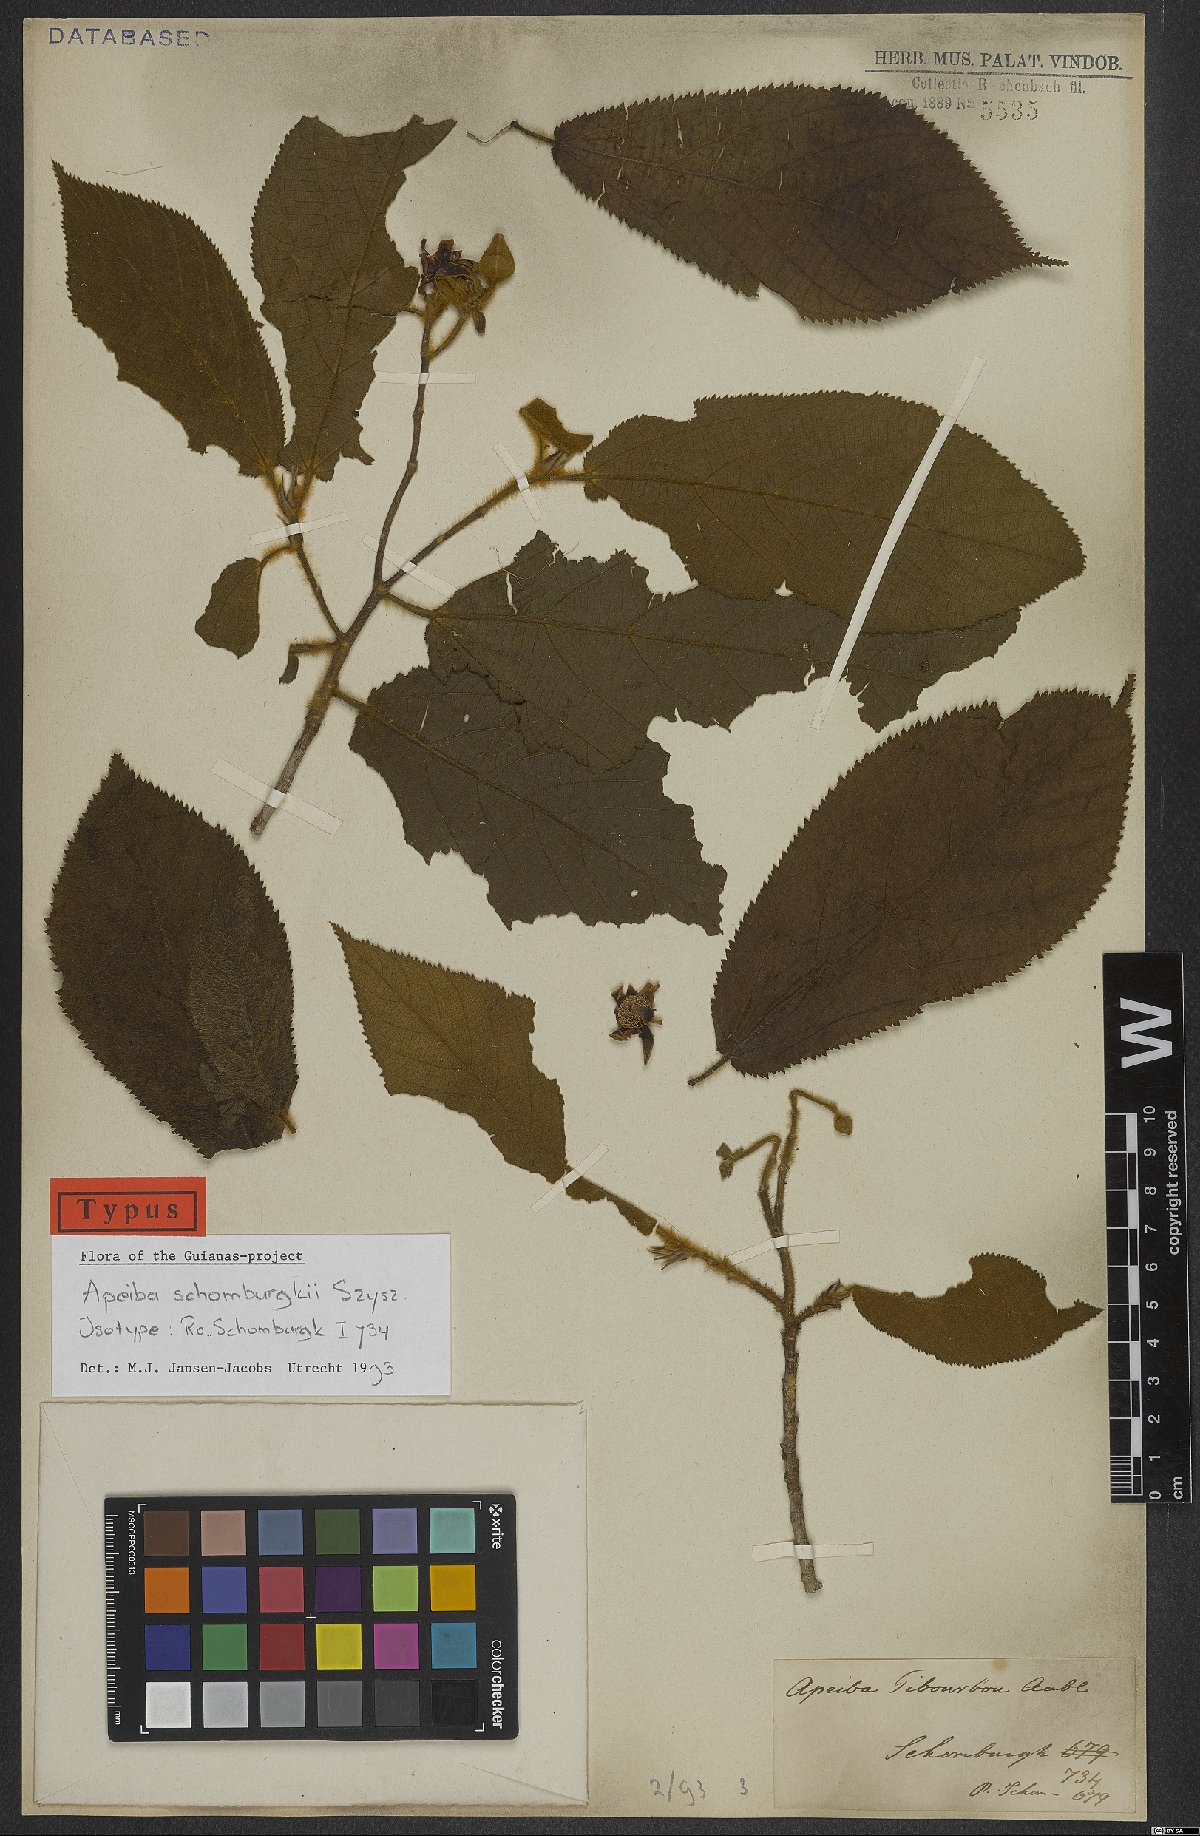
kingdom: Plantae
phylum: Tracheophyta
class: Magnoliopsida
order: Malvales
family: Malvaceae
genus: Apeiba
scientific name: Apeiba schomburgkii
